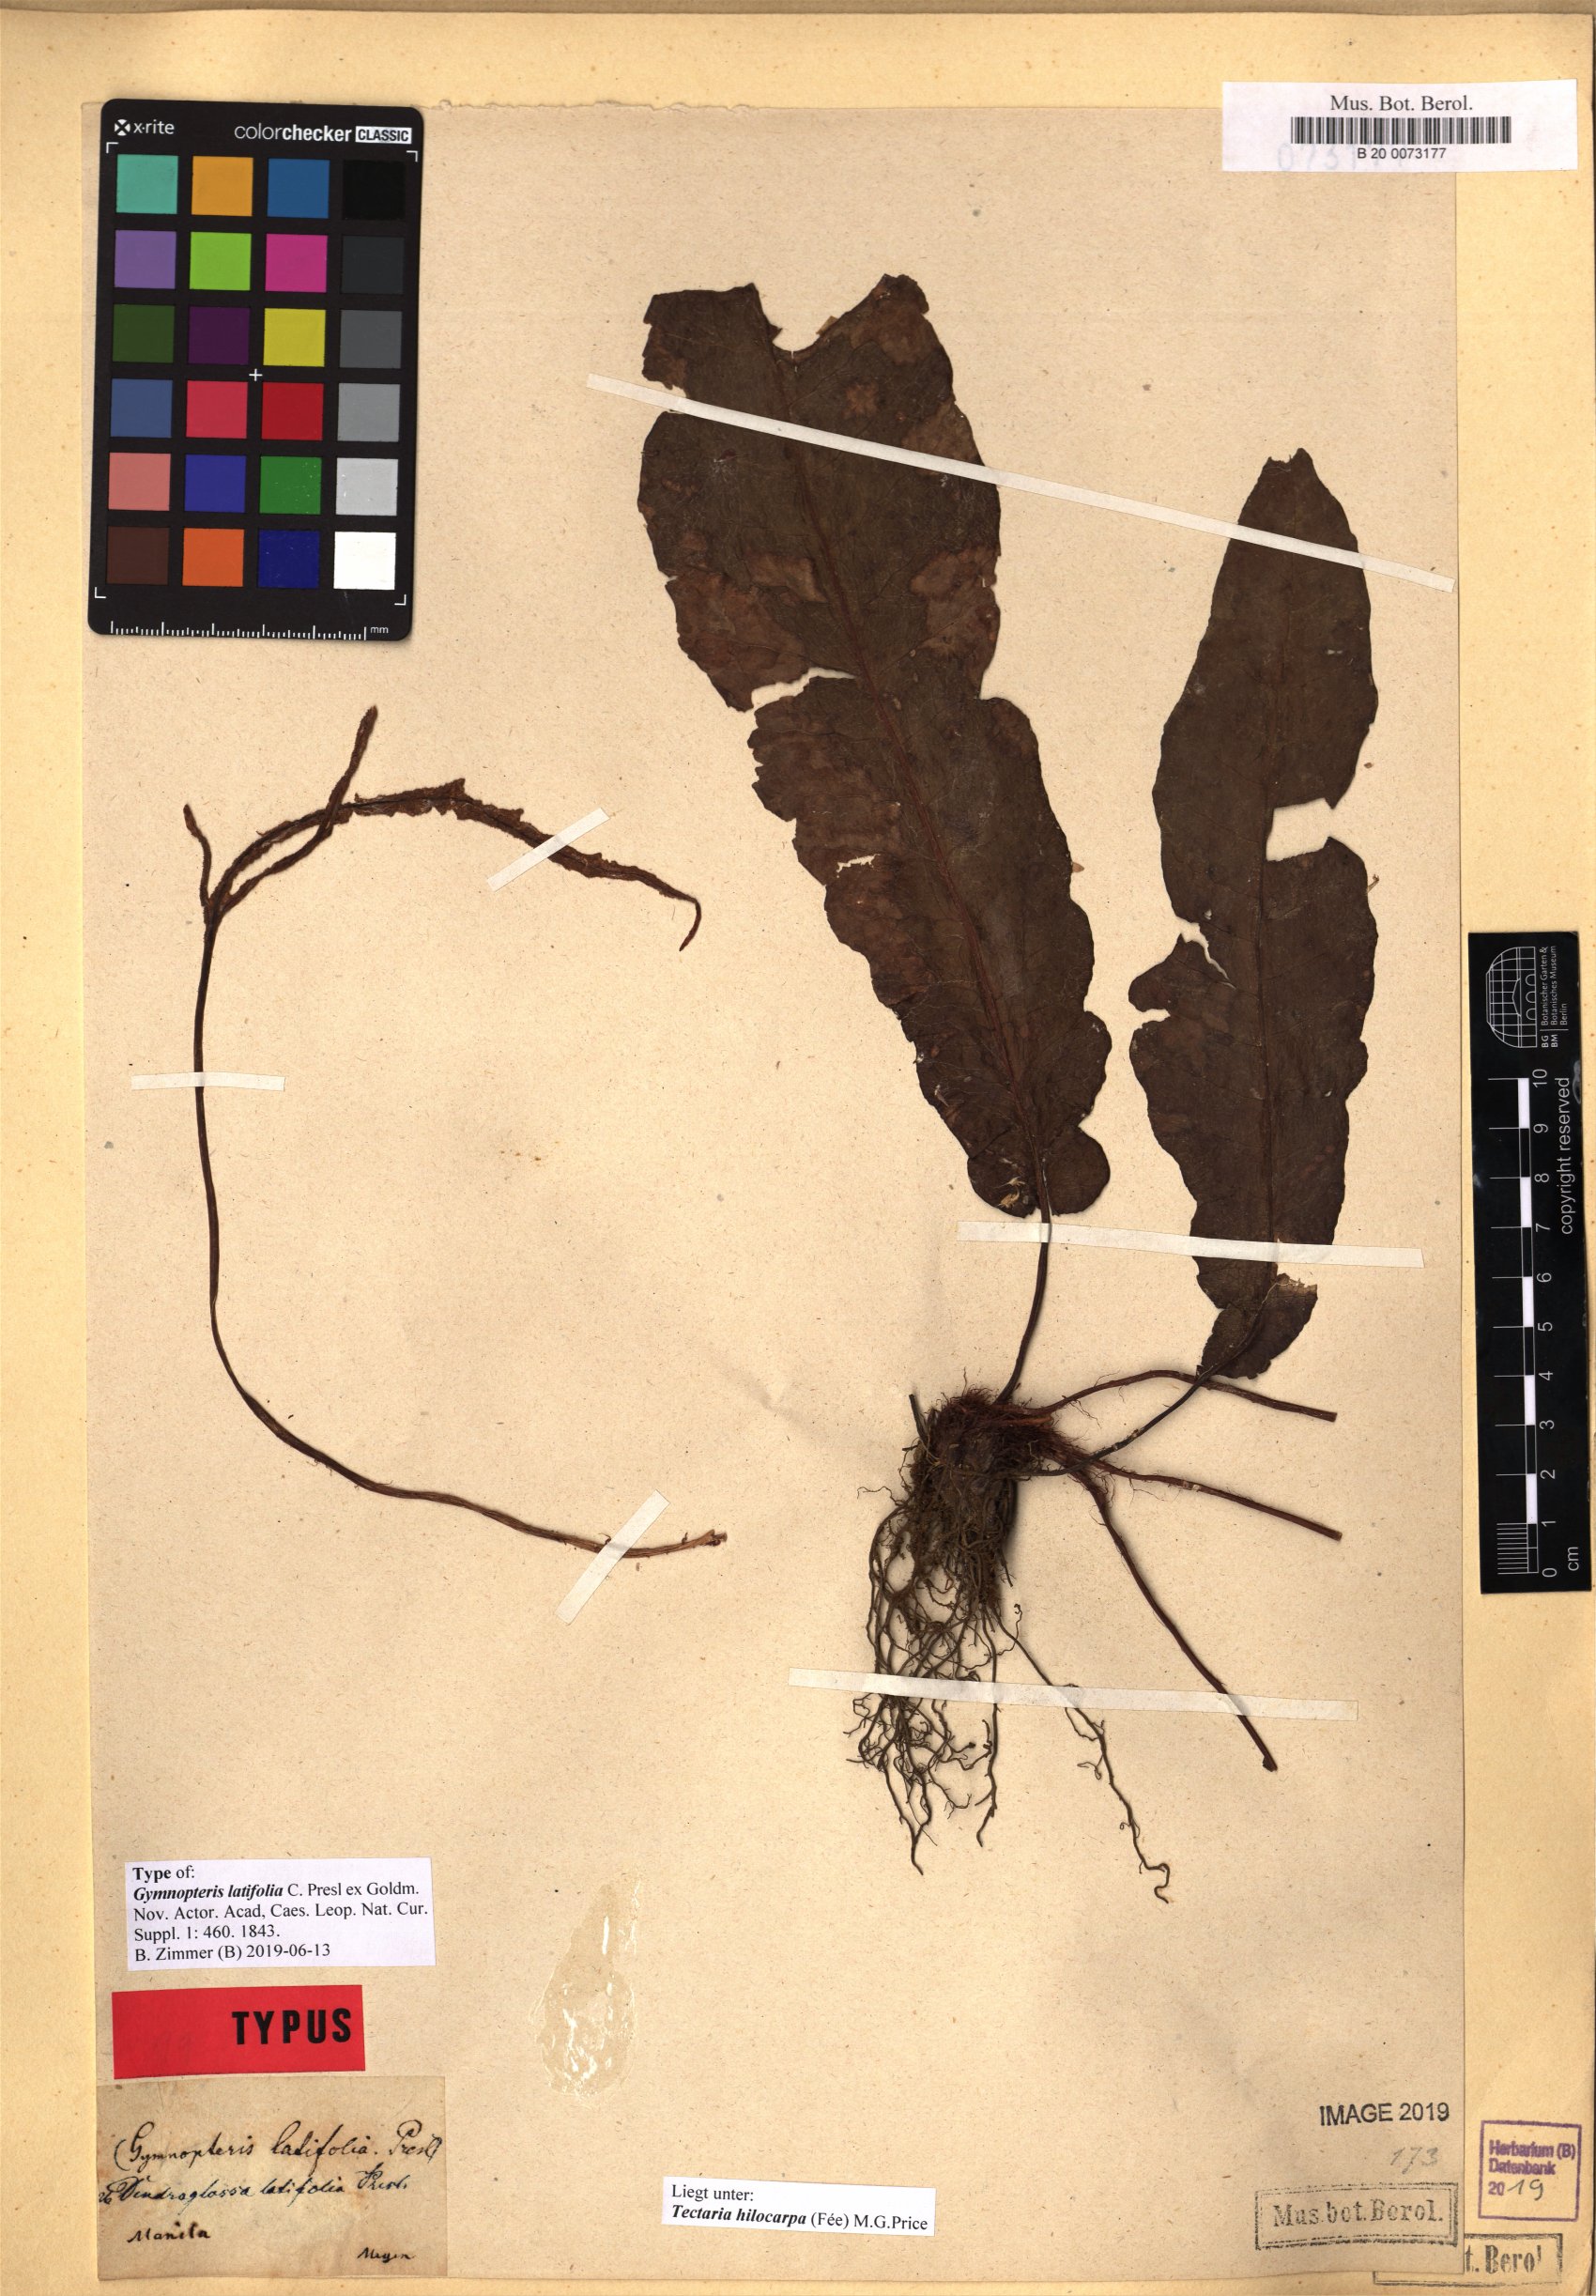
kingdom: Plantae
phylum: Tracheophyta
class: Polypodiopsida
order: Polypodiales
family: Tectariaceae
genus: Tectaria
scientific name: Tectaria hilocarpa
